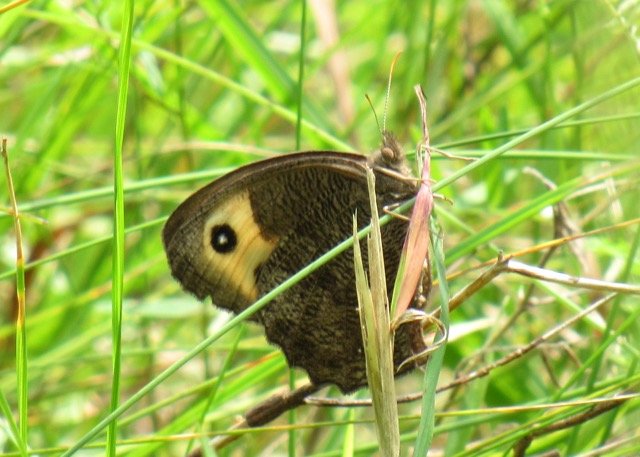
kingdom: Animalia
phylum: Arthropoda
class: Insecta
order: Lepidoptera
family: Nymphalidae
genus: Cercyonis
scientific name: Cercyonis pegala
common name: Common Wood-Nymph
